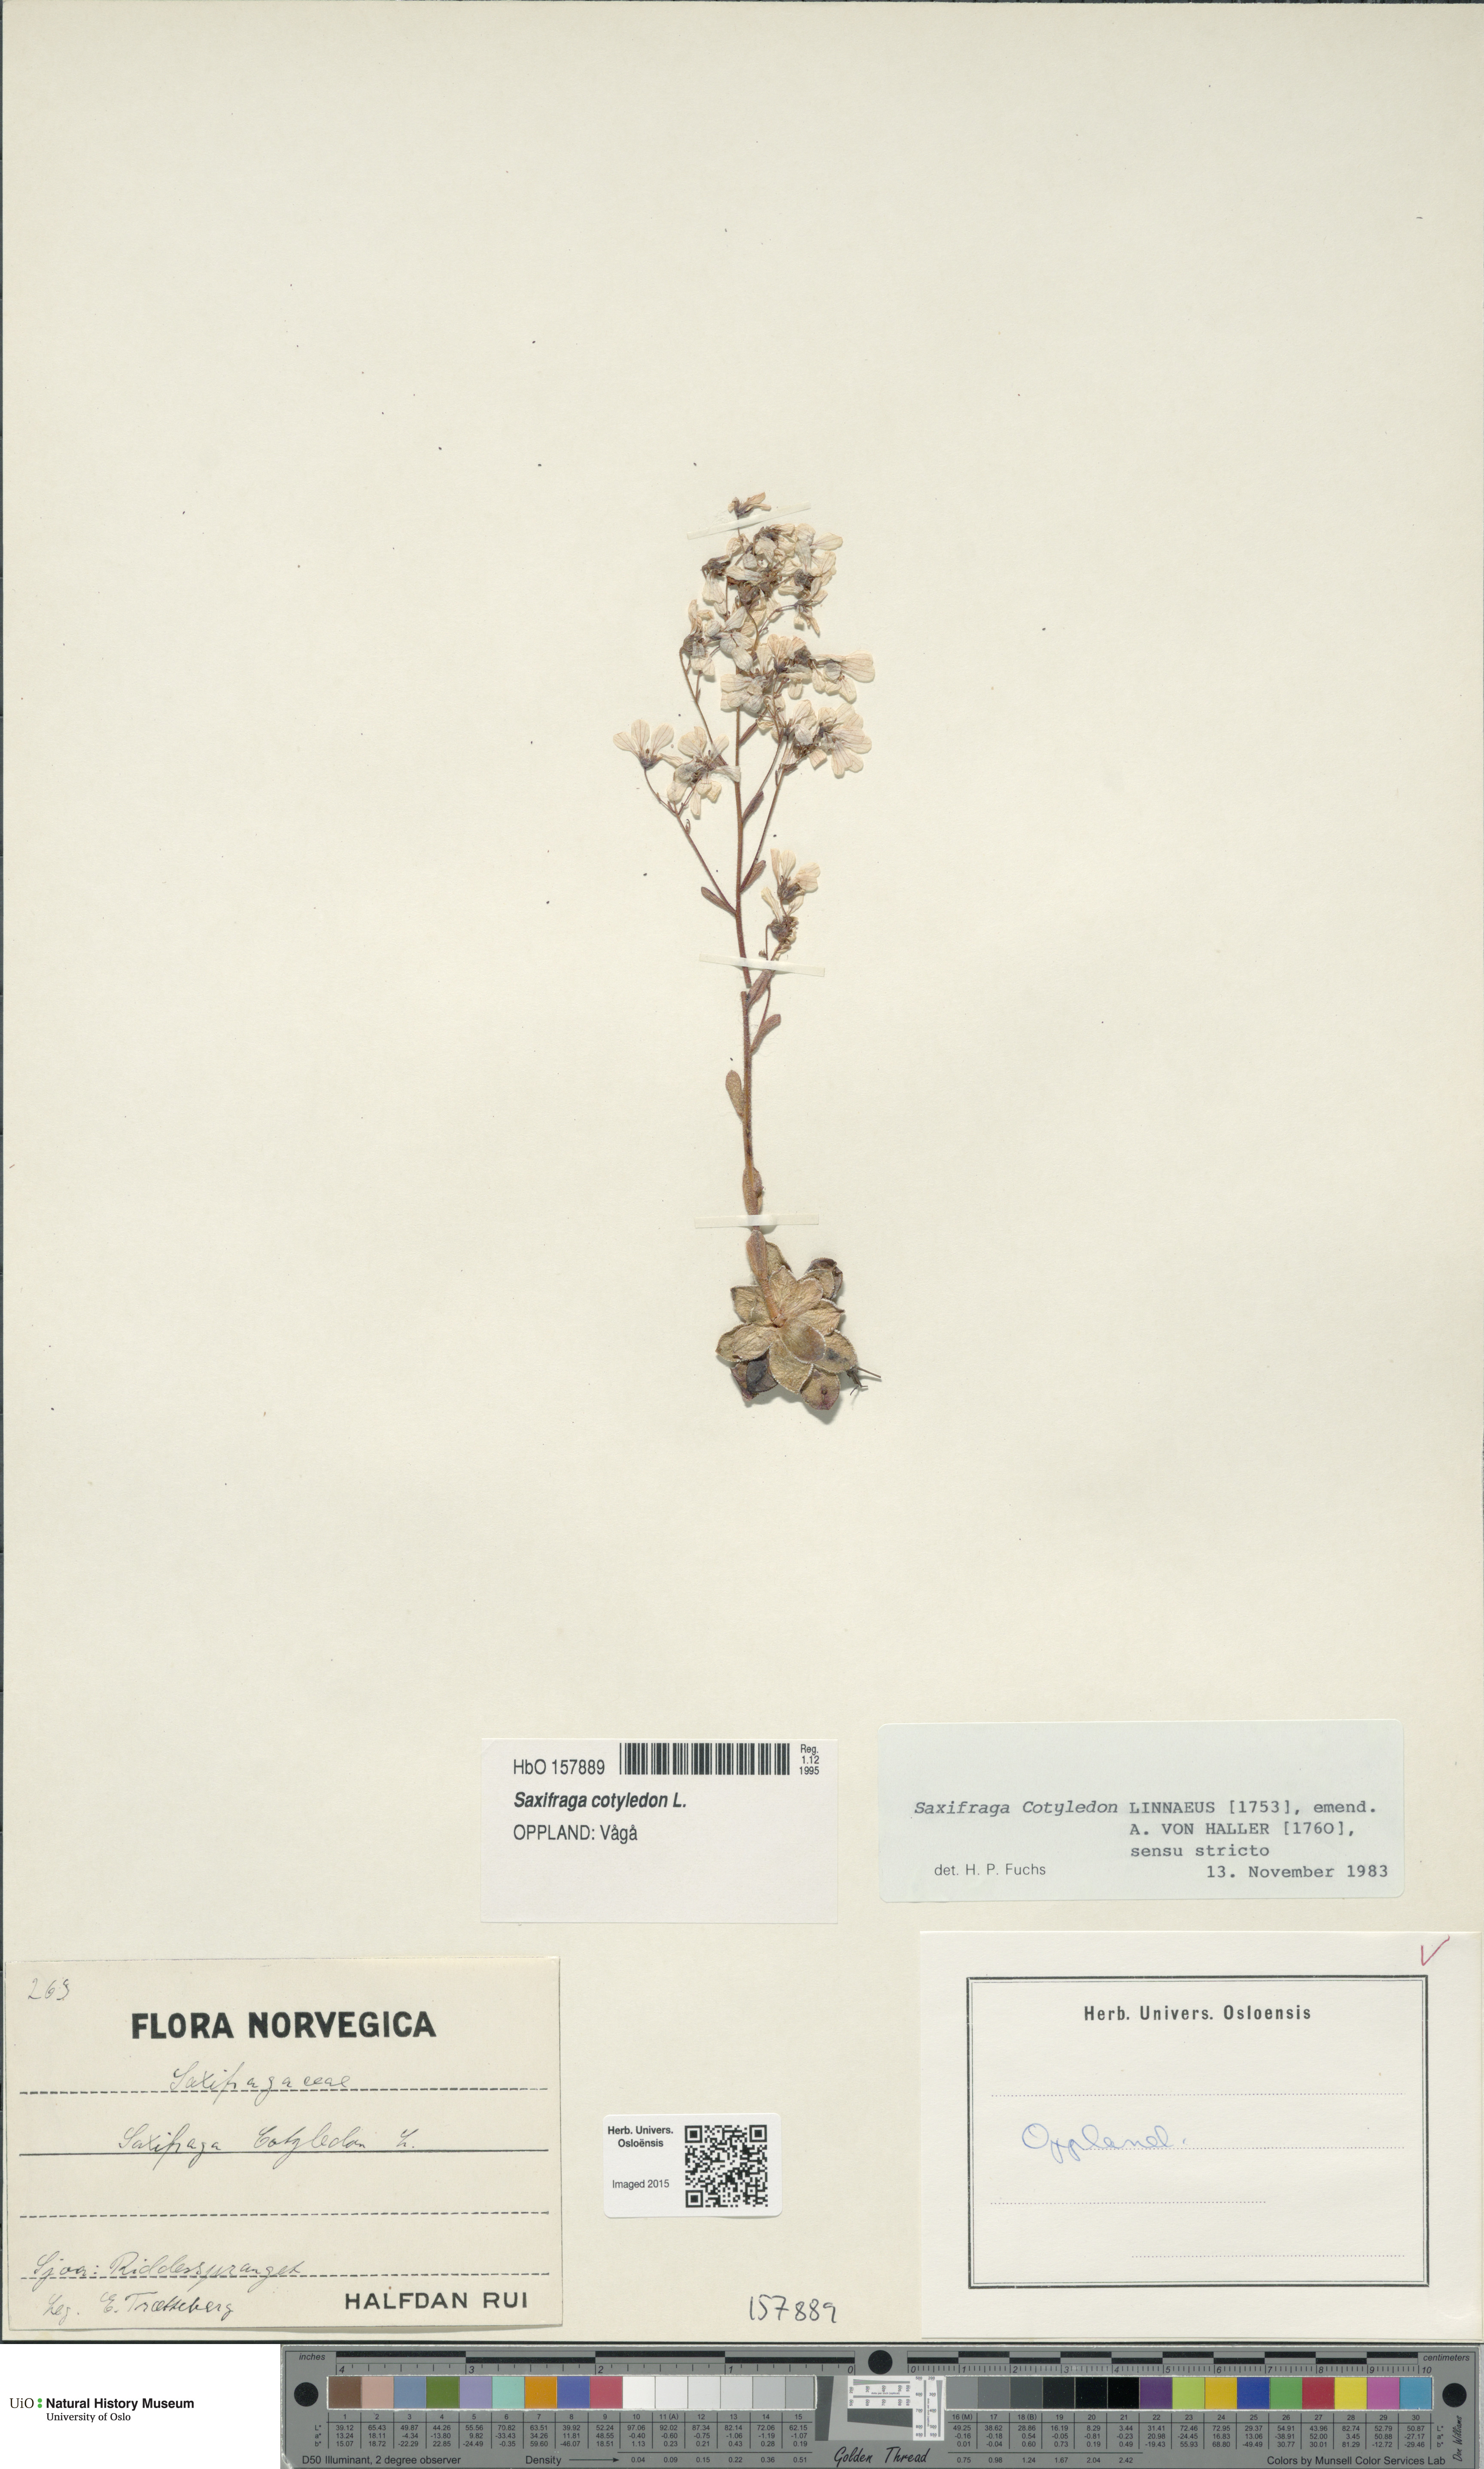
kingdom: Plantae
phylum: Tracheophyta
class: Magnoliopsida
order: Saxifragales
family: Saxifragaceae
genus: Saxifraga
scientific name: Saxifraga cotyledon
